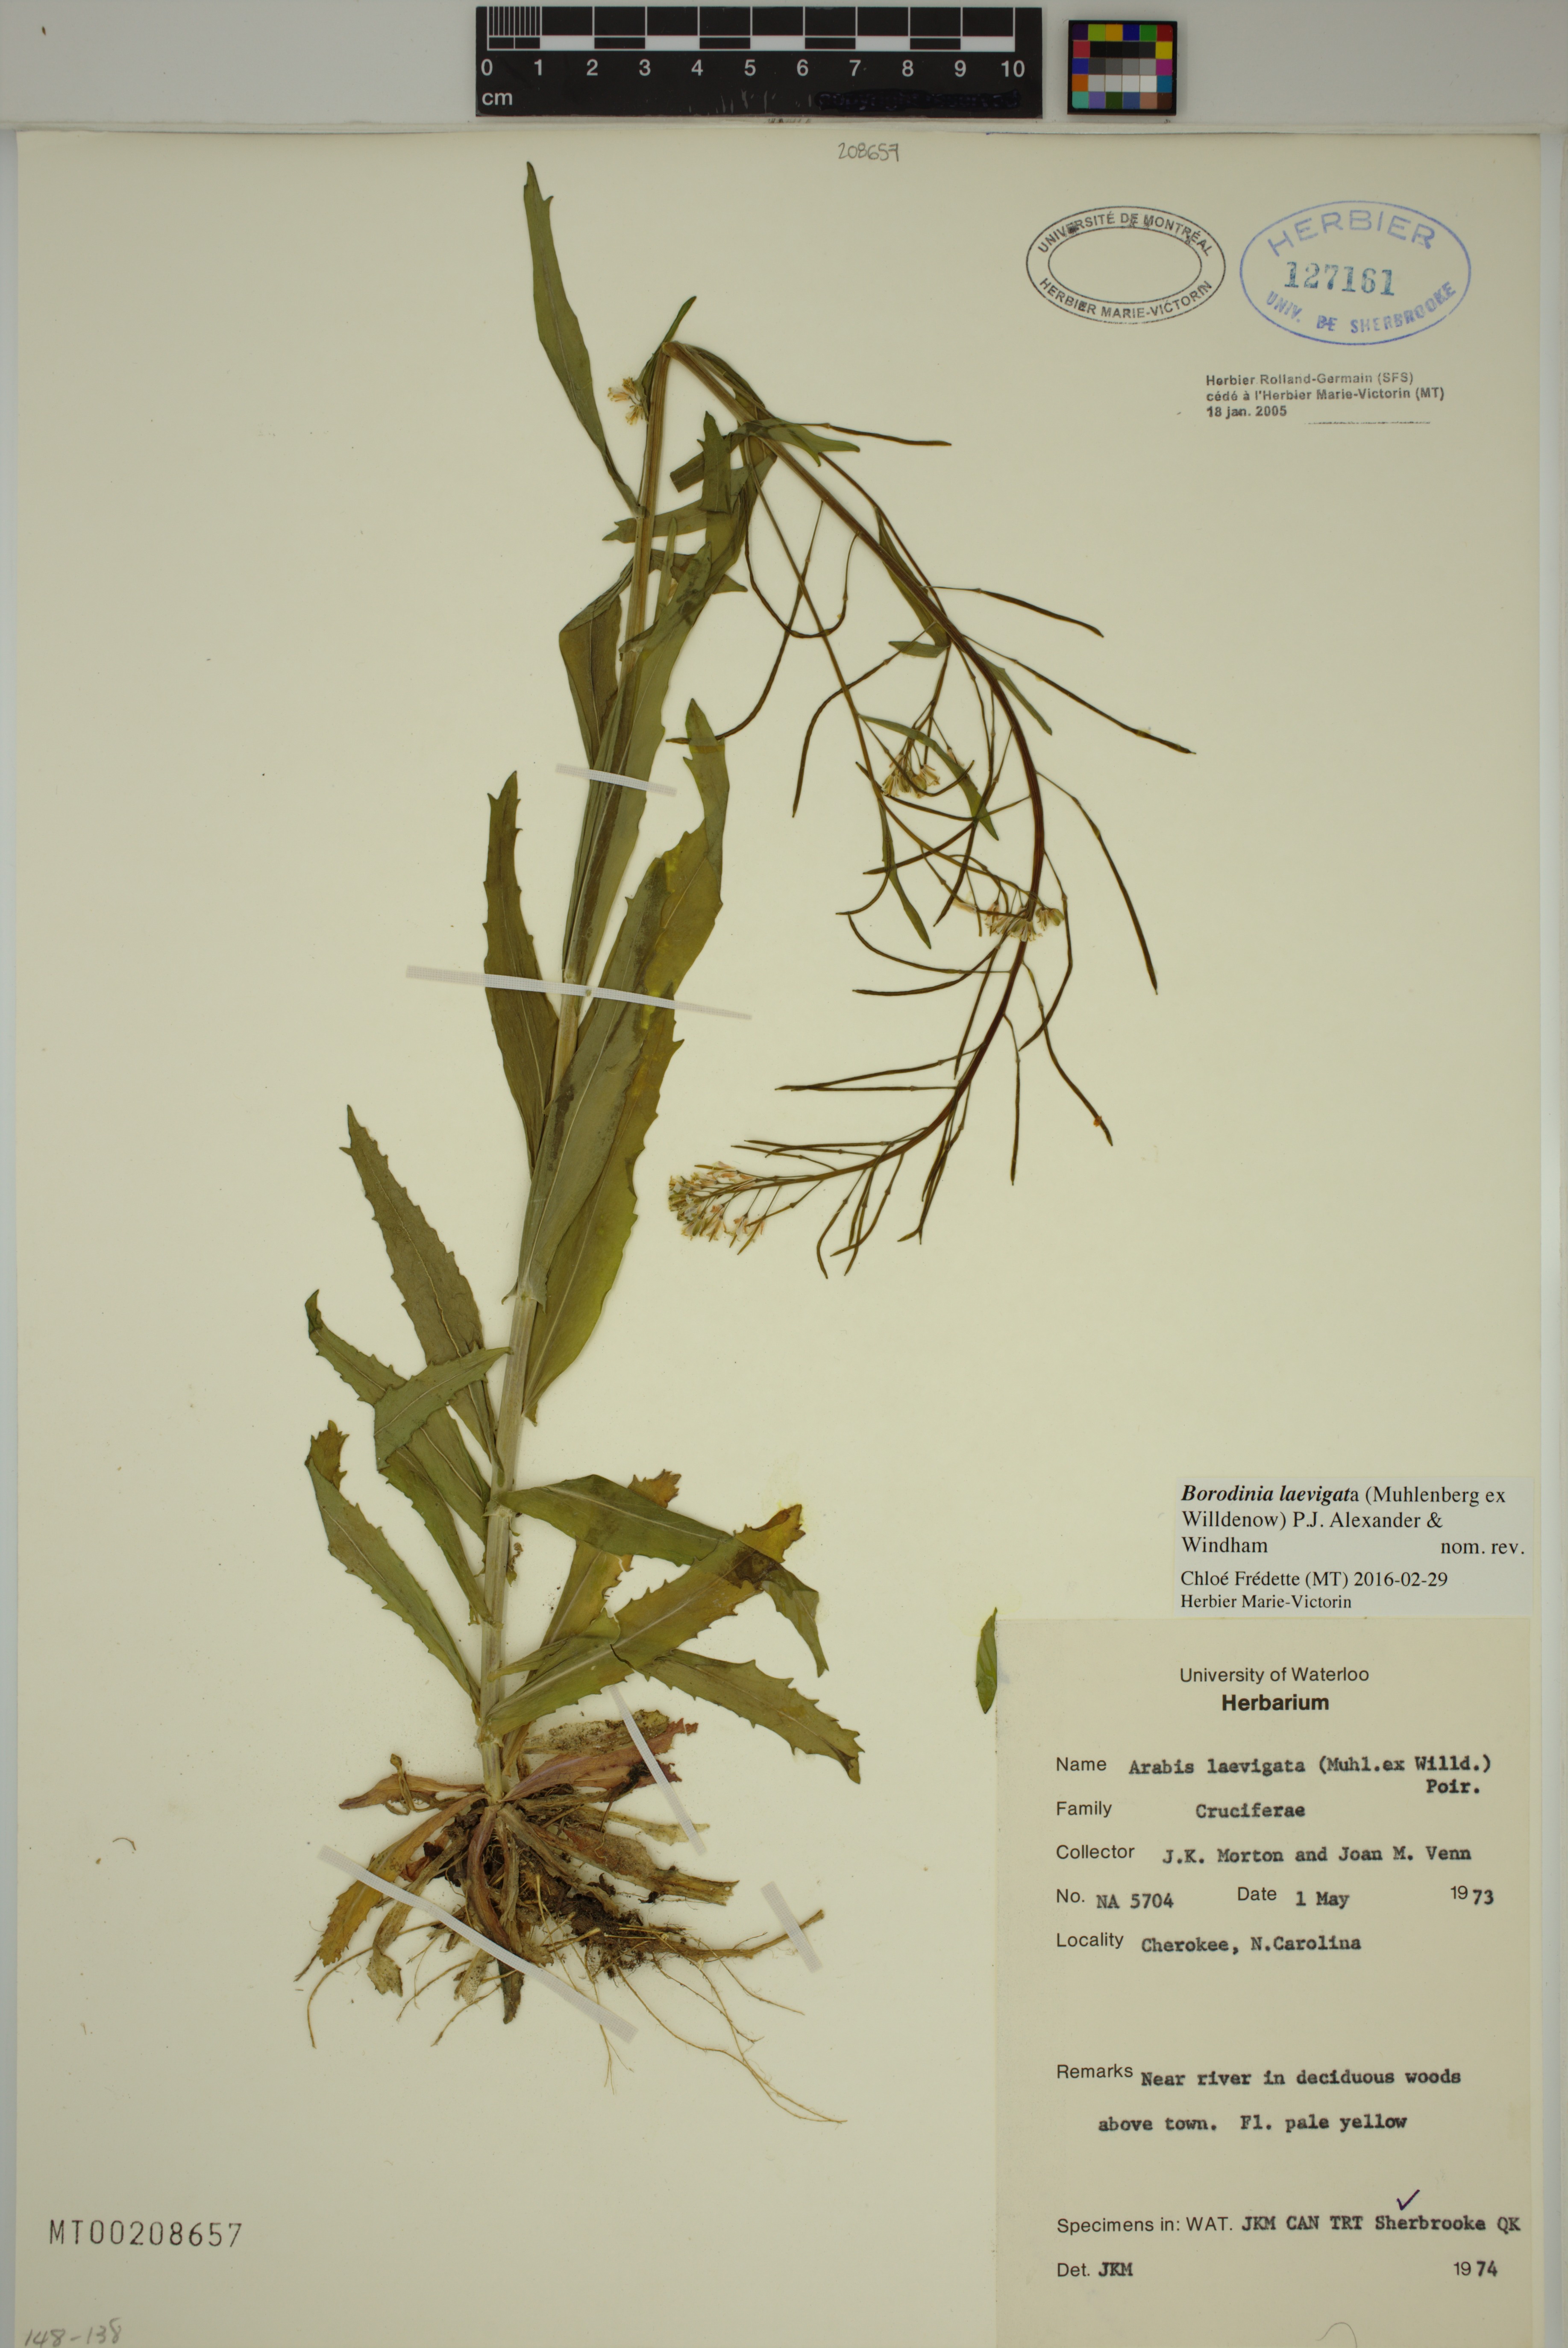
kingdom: Plantae
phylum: Tracheophyta
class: Magnoliopsida
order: Brassicales
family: Brassicaceae
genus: Borodinia
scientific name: Borodinia laevigata
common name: Smooth rockcress
